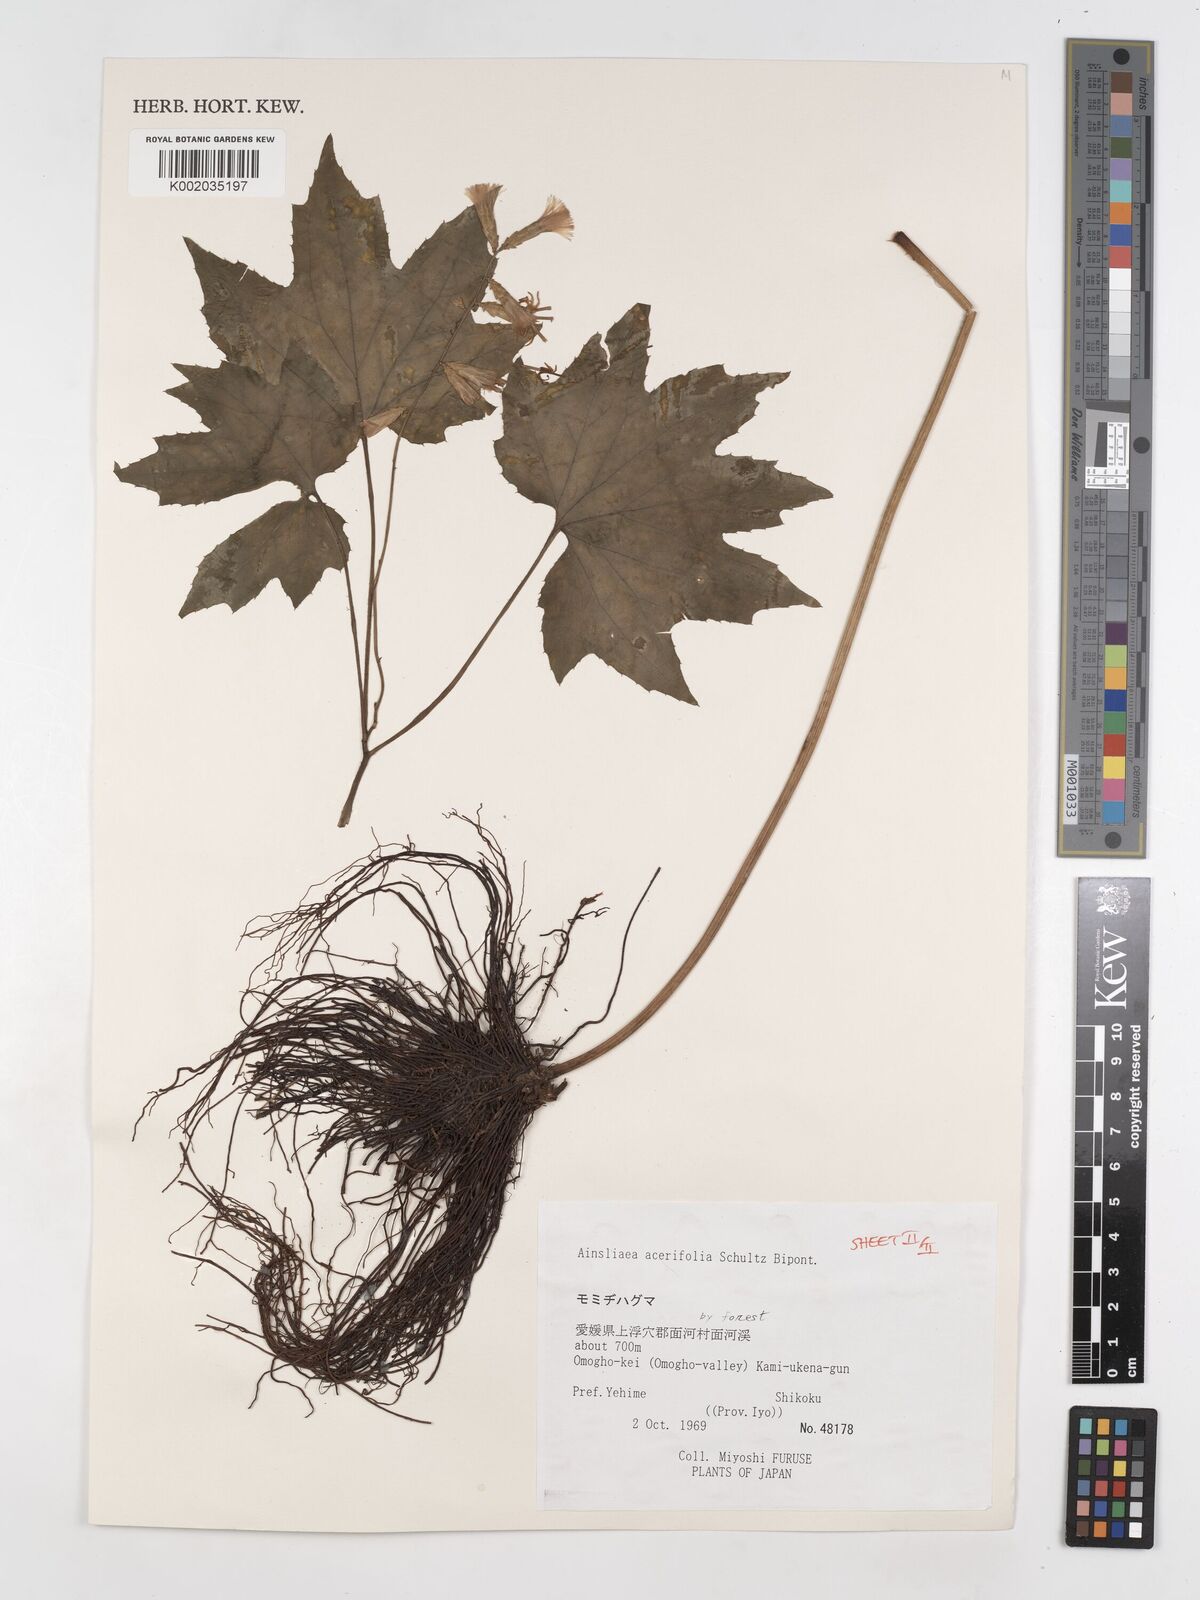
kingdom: Plantae
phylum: Tracheophyta
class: Magnoliopsida
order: Asterales
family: Asteraceae
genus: Ainsliaea
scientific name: Ainsliaea acerifolia
